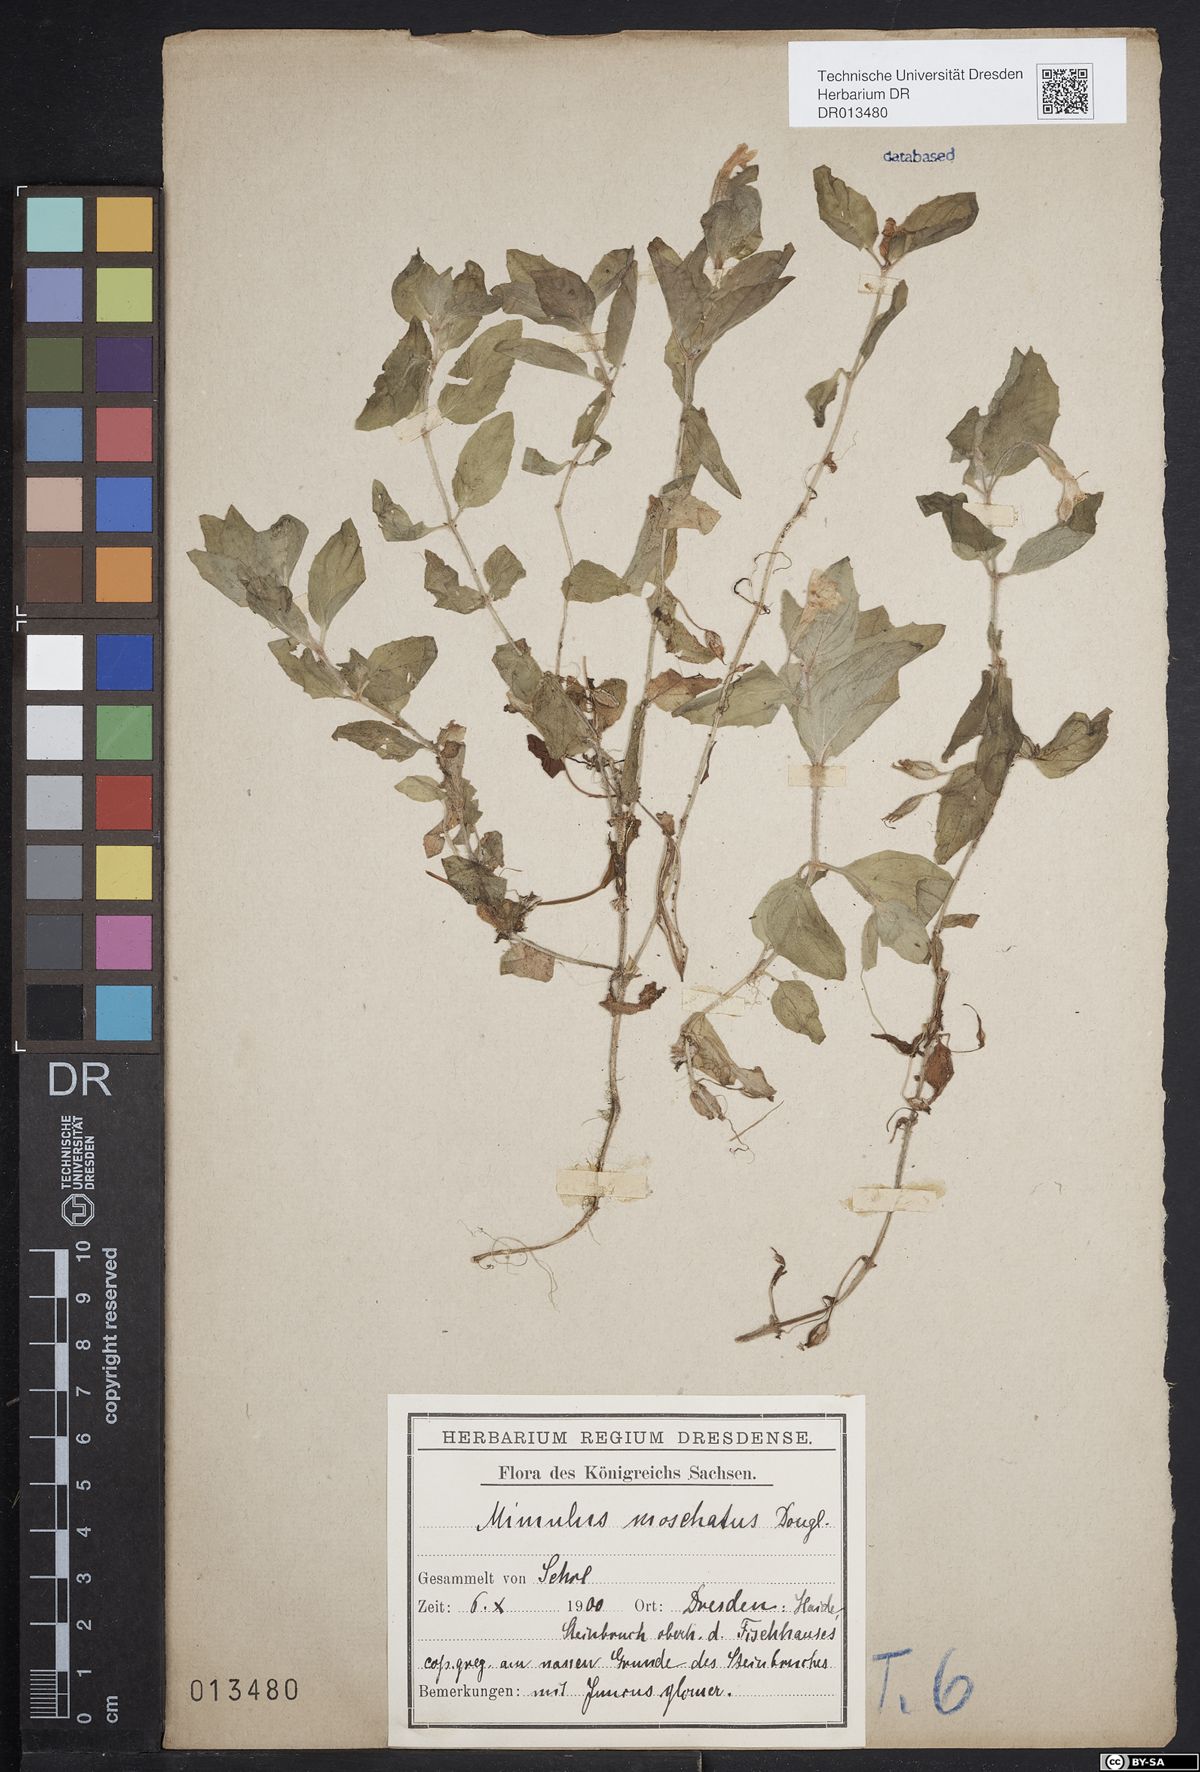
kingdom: Plantae
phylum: Tracheophyta
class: Magnoliopsida
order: Lamiales
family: Phrymaceae
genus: Erythranthe
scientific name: Erythranthe moschata
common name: Muskflower
